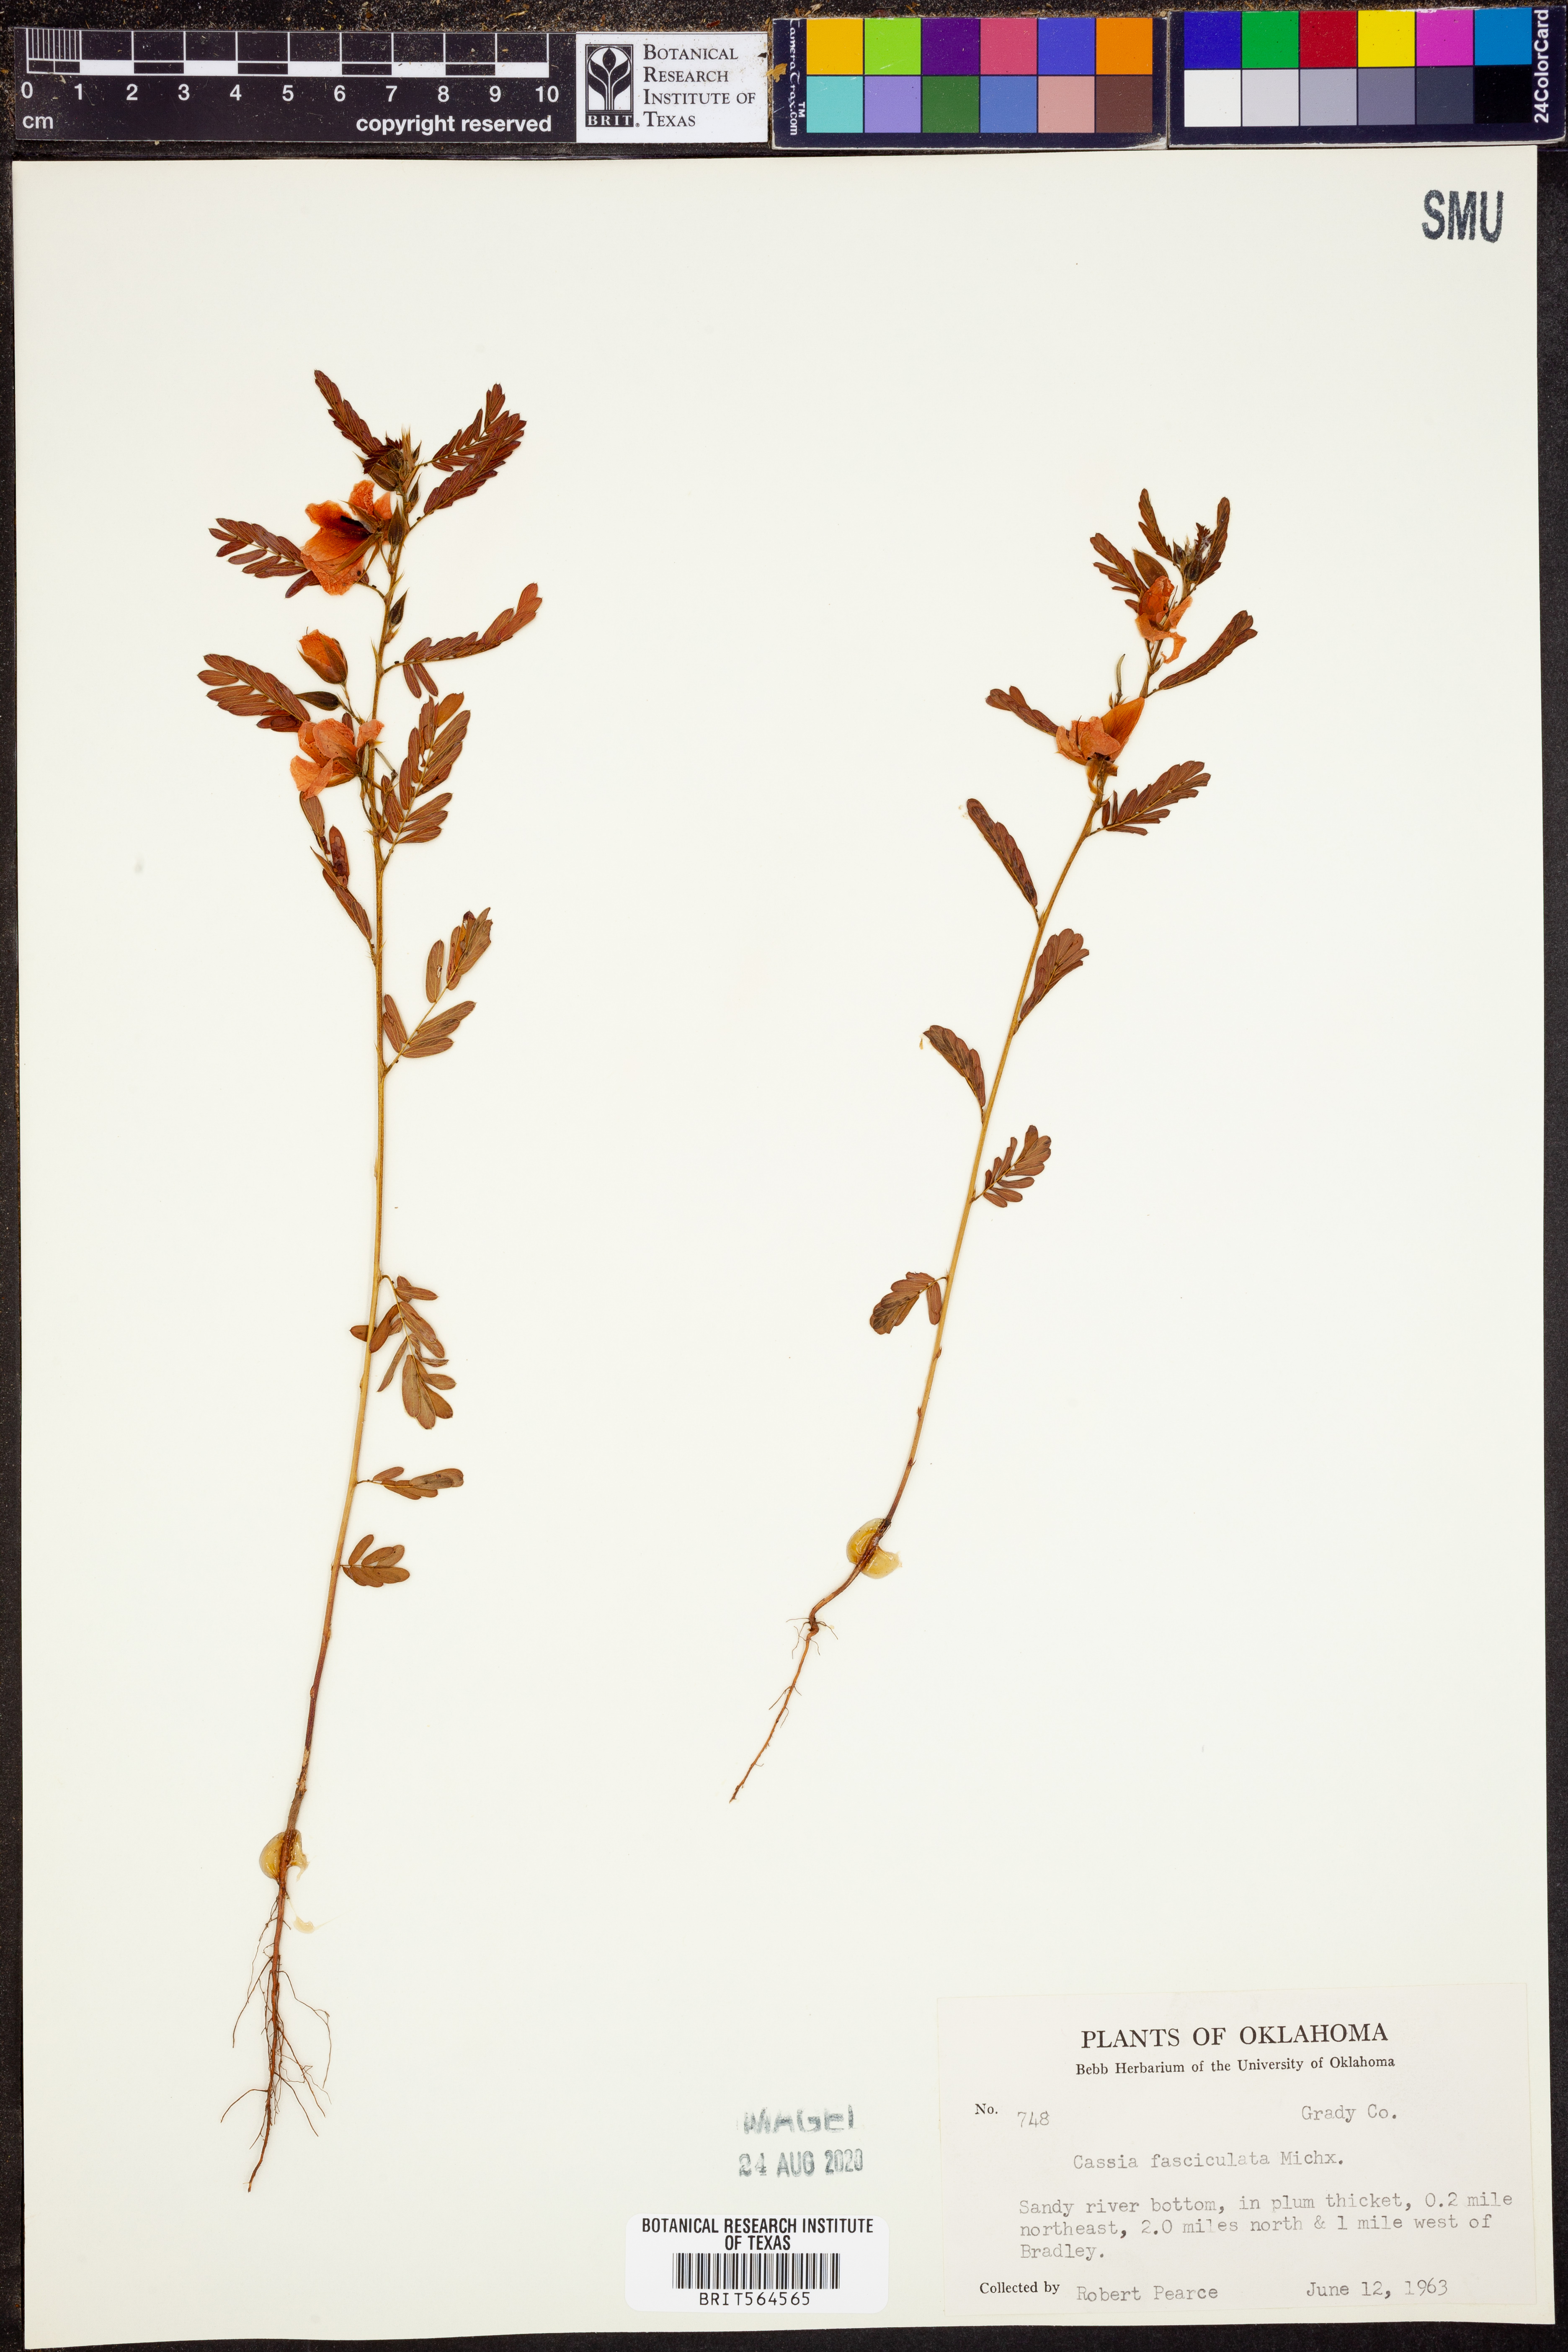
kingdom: Plantae
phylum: Tracheophyta
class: Magnoliopsida
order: Fabales
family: Fabaceae
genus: Chamaecrista
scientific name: Chamaecrista fasciculata
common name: Golden cassia
